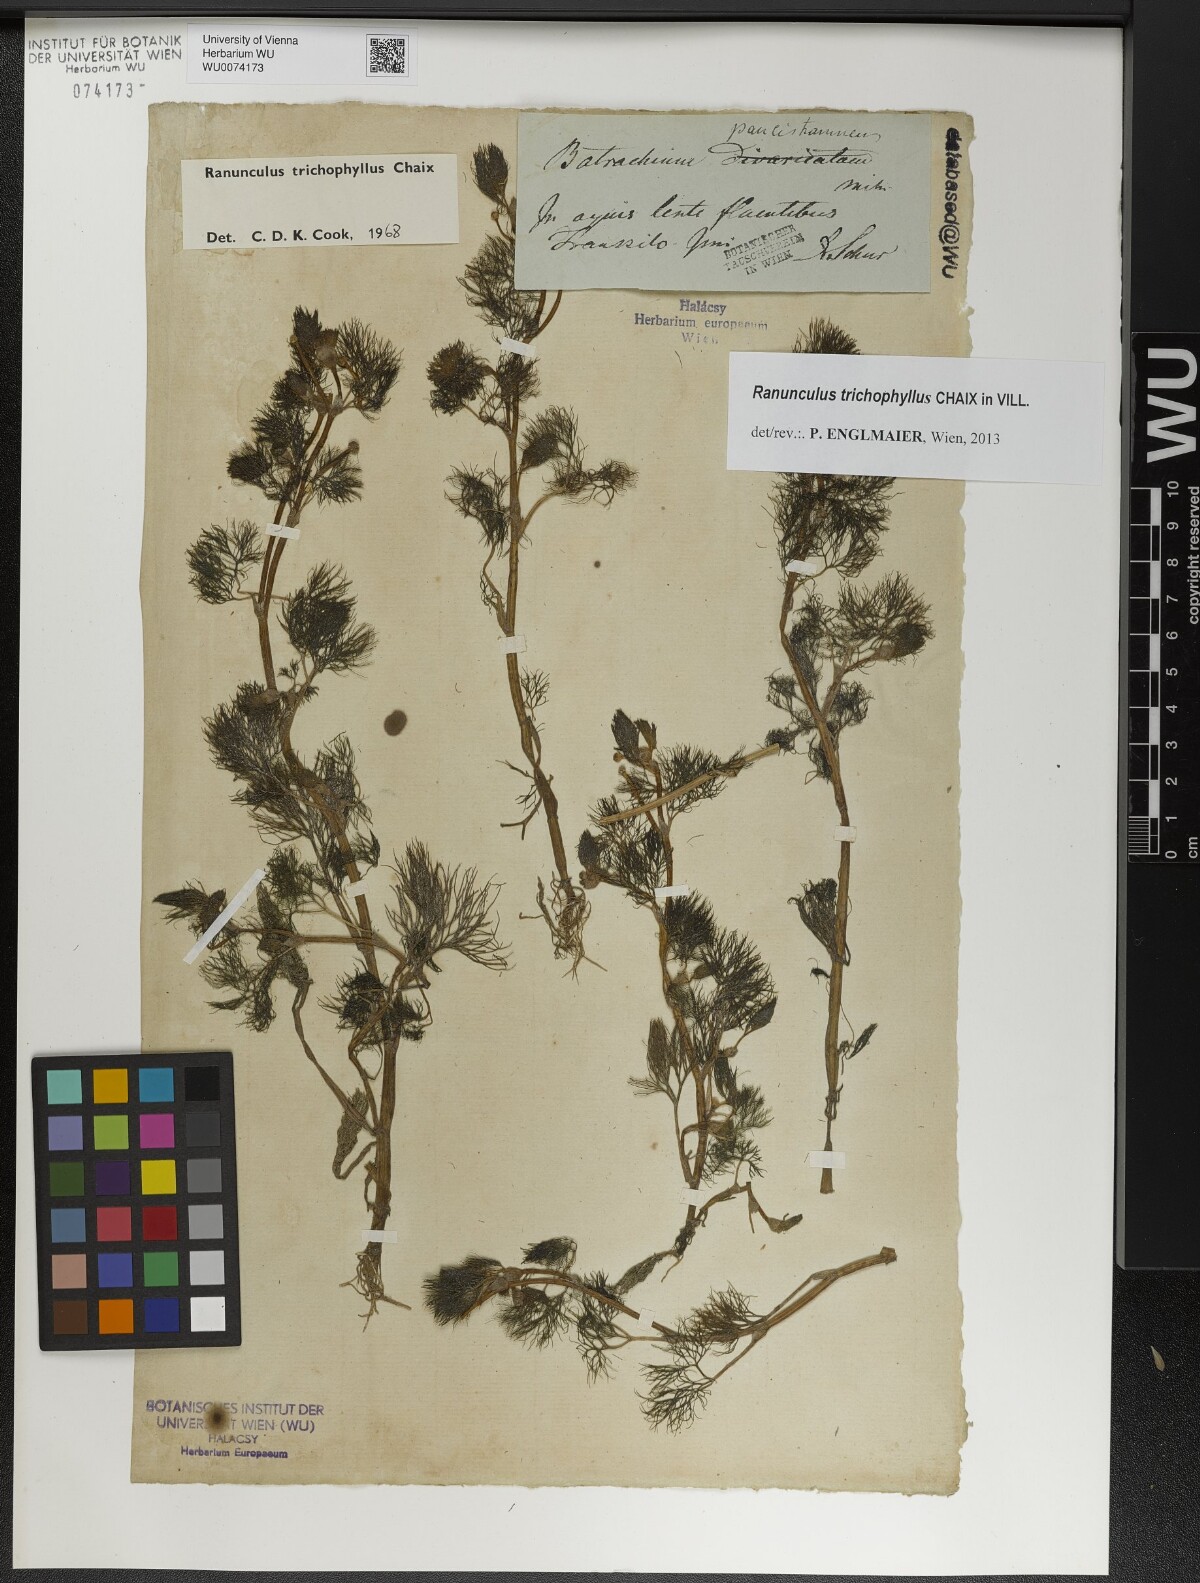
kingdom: Plantae
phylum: Tracheophyta
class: Magnoliopsida
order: Ranunculales
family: Ranunculaceae
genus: Ranunculus
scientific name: Ranunculus trichophyllus
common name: Thread-leaved water-crowfoot
